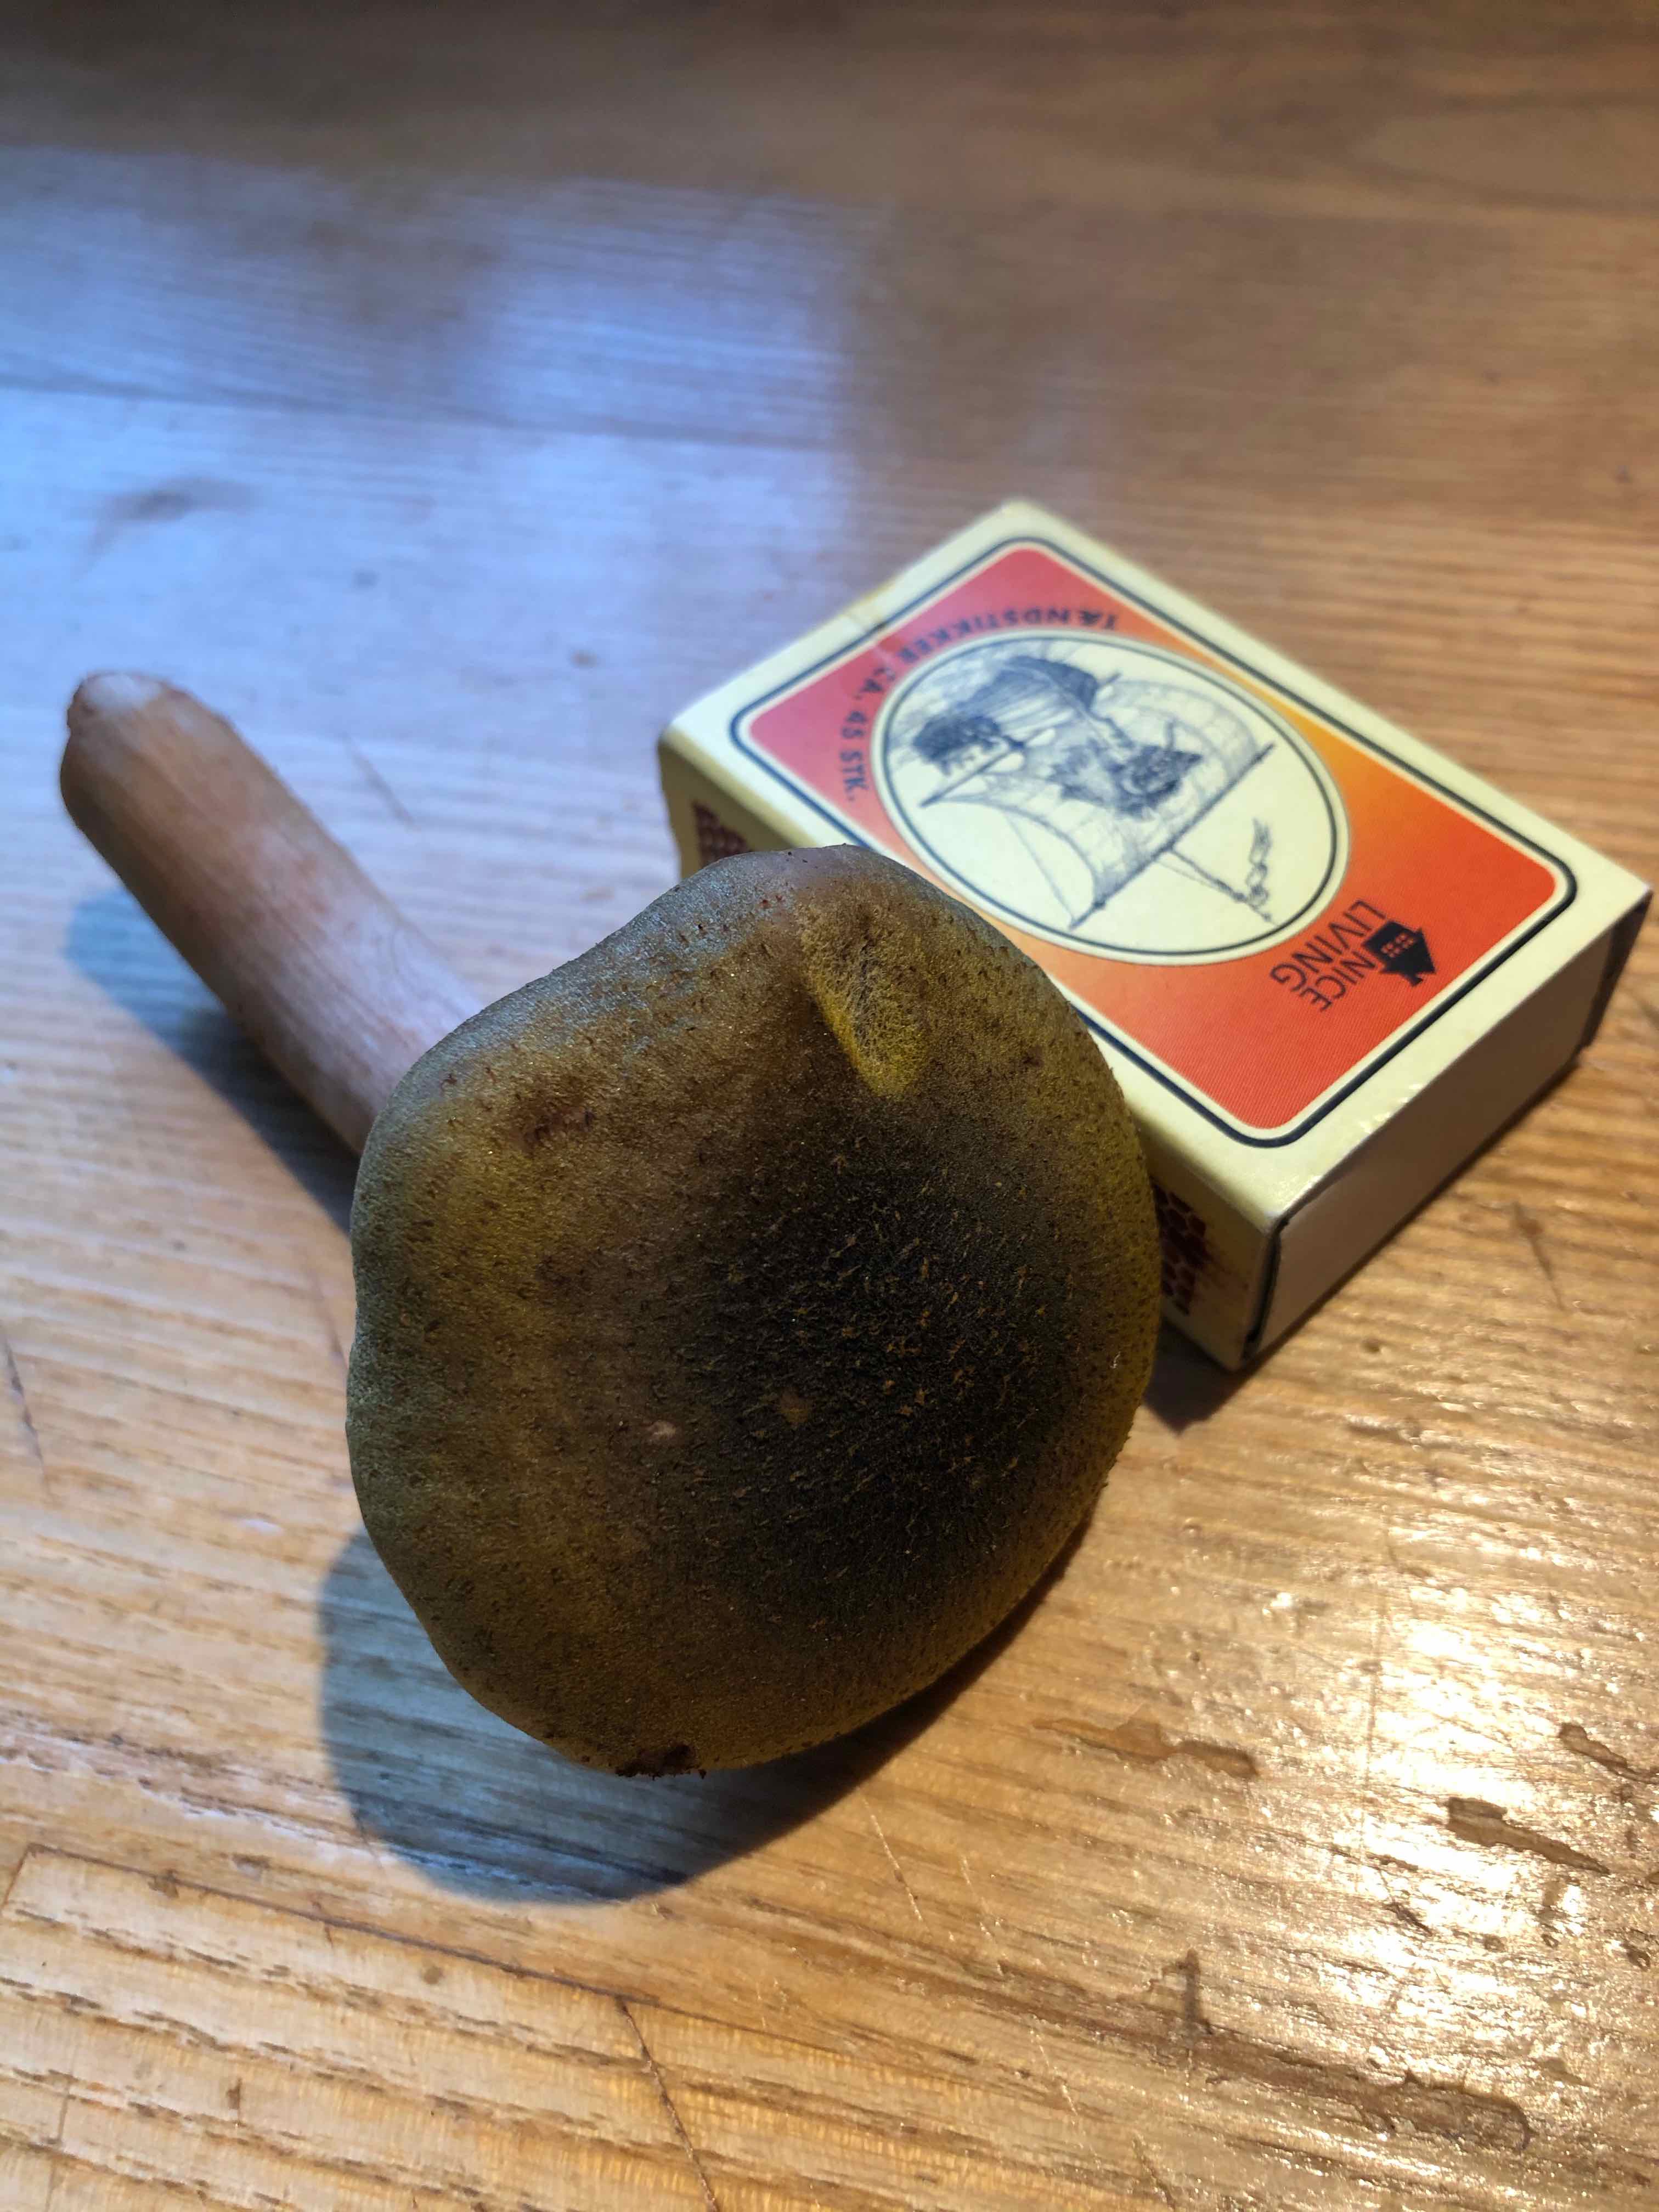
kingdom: Fungi
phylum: Basidiomycota
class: Agaricomycetes
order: Agaricales
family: Physalacriaceae
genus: Armillaria
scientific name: Armillaria mellea
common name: ægte honningsvamp
